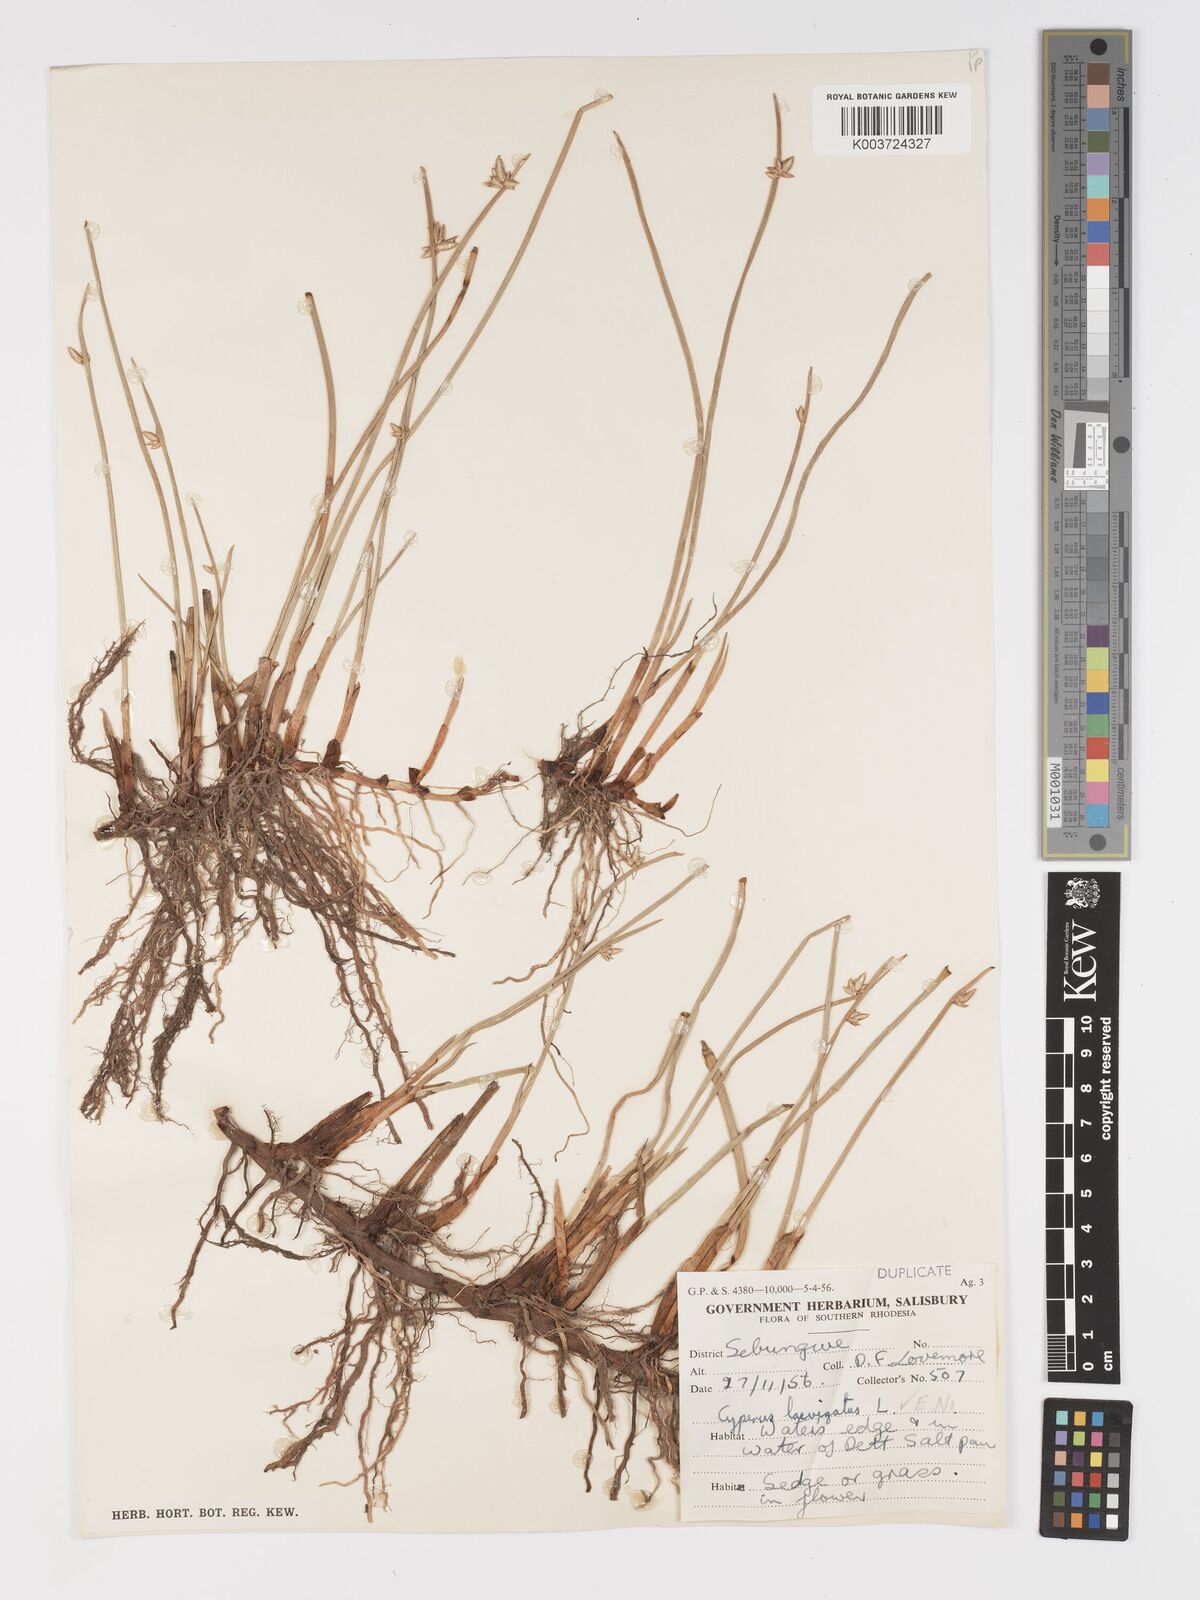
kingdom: Plantae
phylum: Tracheophyta
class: Liliopsida
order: Poales
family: Cyperaceae
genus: Cyperus
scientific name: Cyperus laevigatus
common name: Smooth flat sedge
